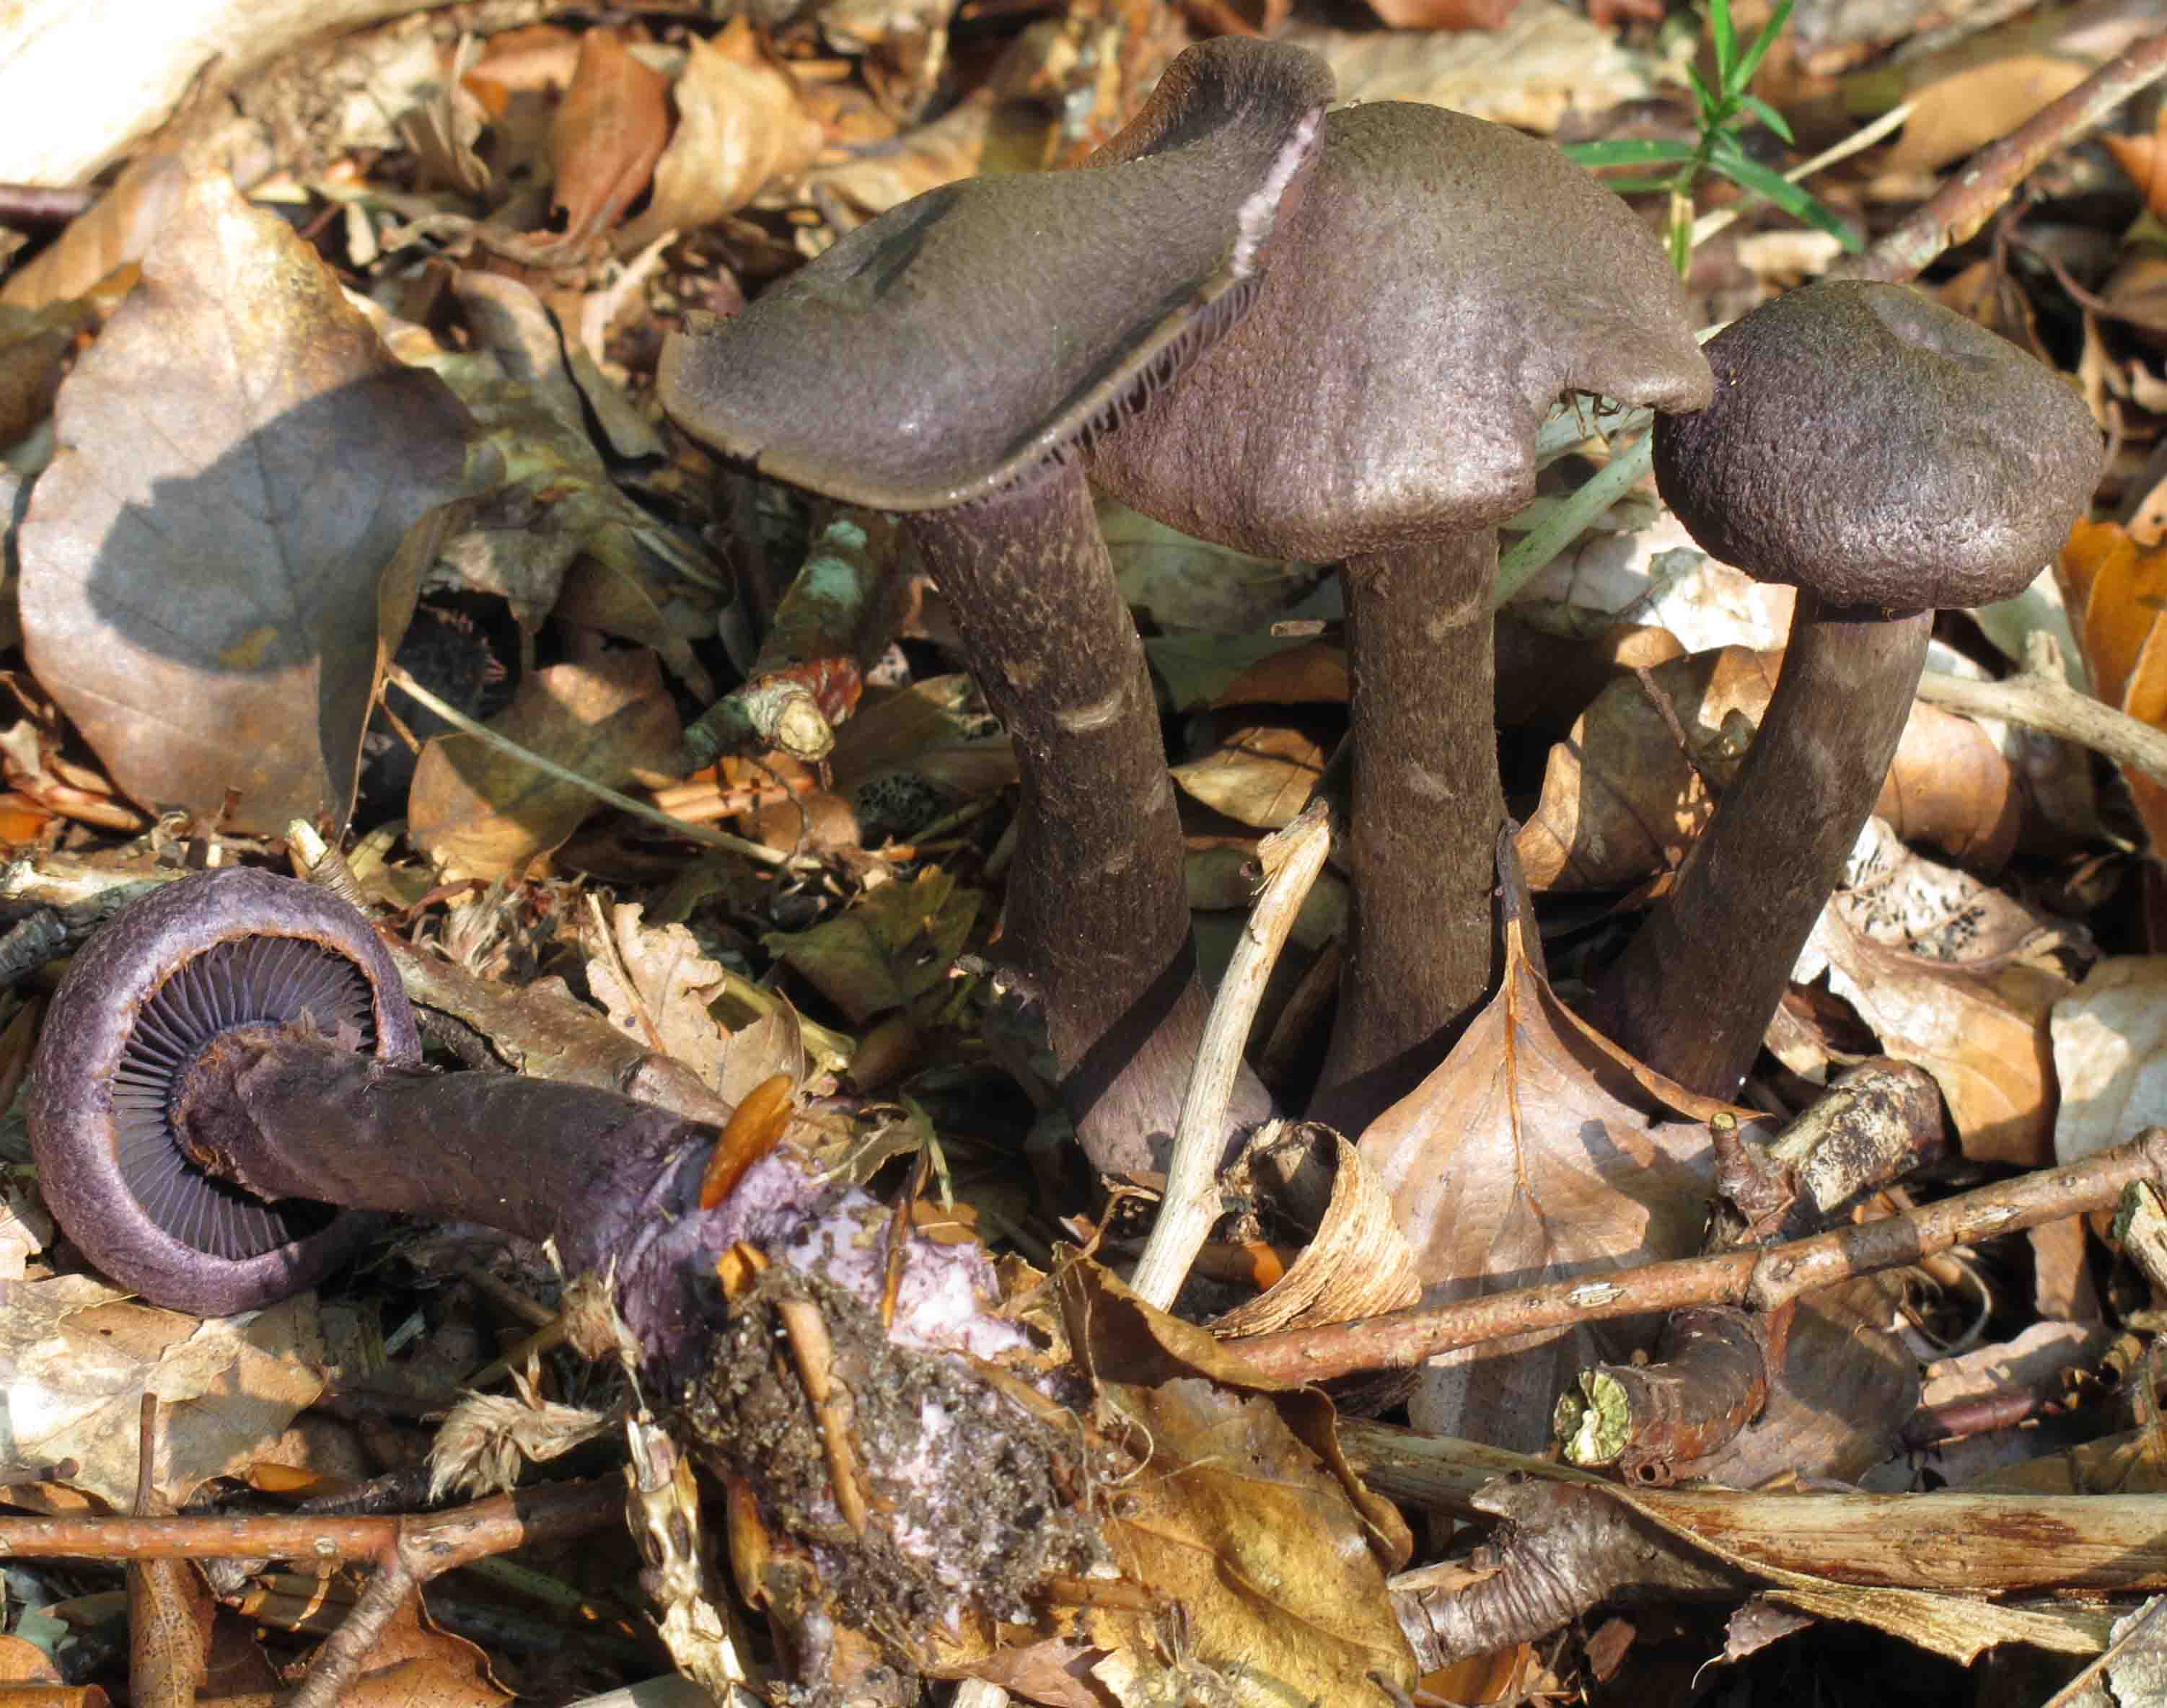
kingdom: Fungi
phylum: Basidiomycota
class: Agaricomycetes
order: Agaricales
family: Cortinariaceae
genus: Cortinarius
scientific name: Cortinarius violaceus
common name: mørkviolet slørhat
